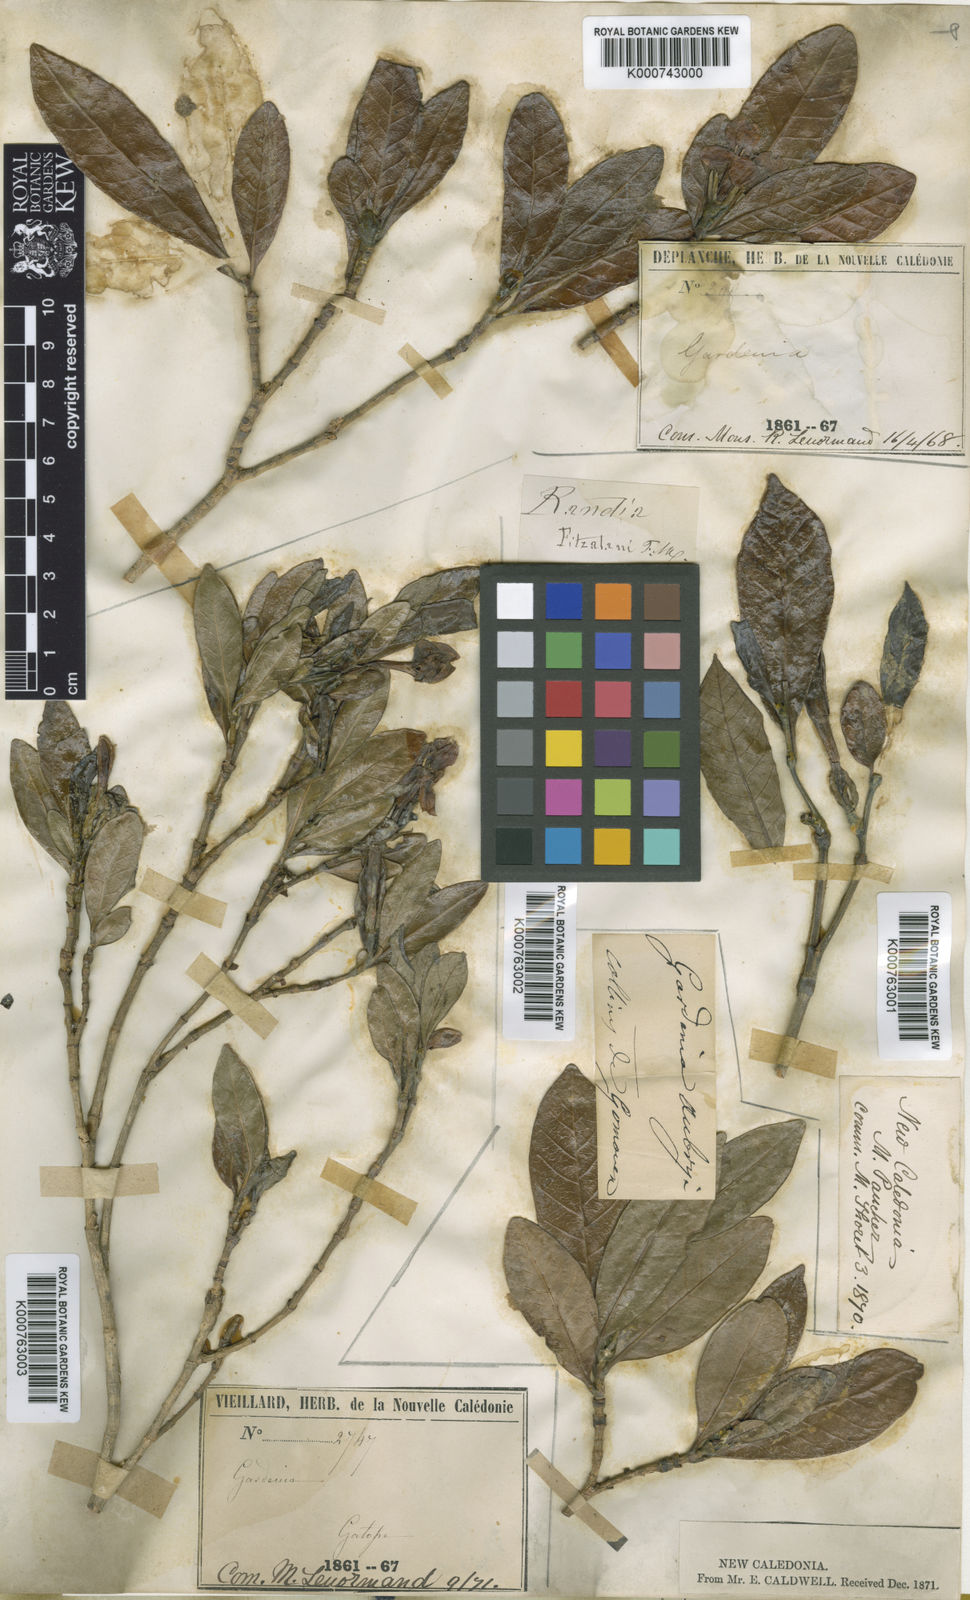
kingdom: Plantae
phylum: Tracheophyta
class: Magnoliopsida
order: Gentianales
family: Rubiaceae
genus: Atractocarpus
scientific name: Atractocarpus fitzalanii
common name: Randia
